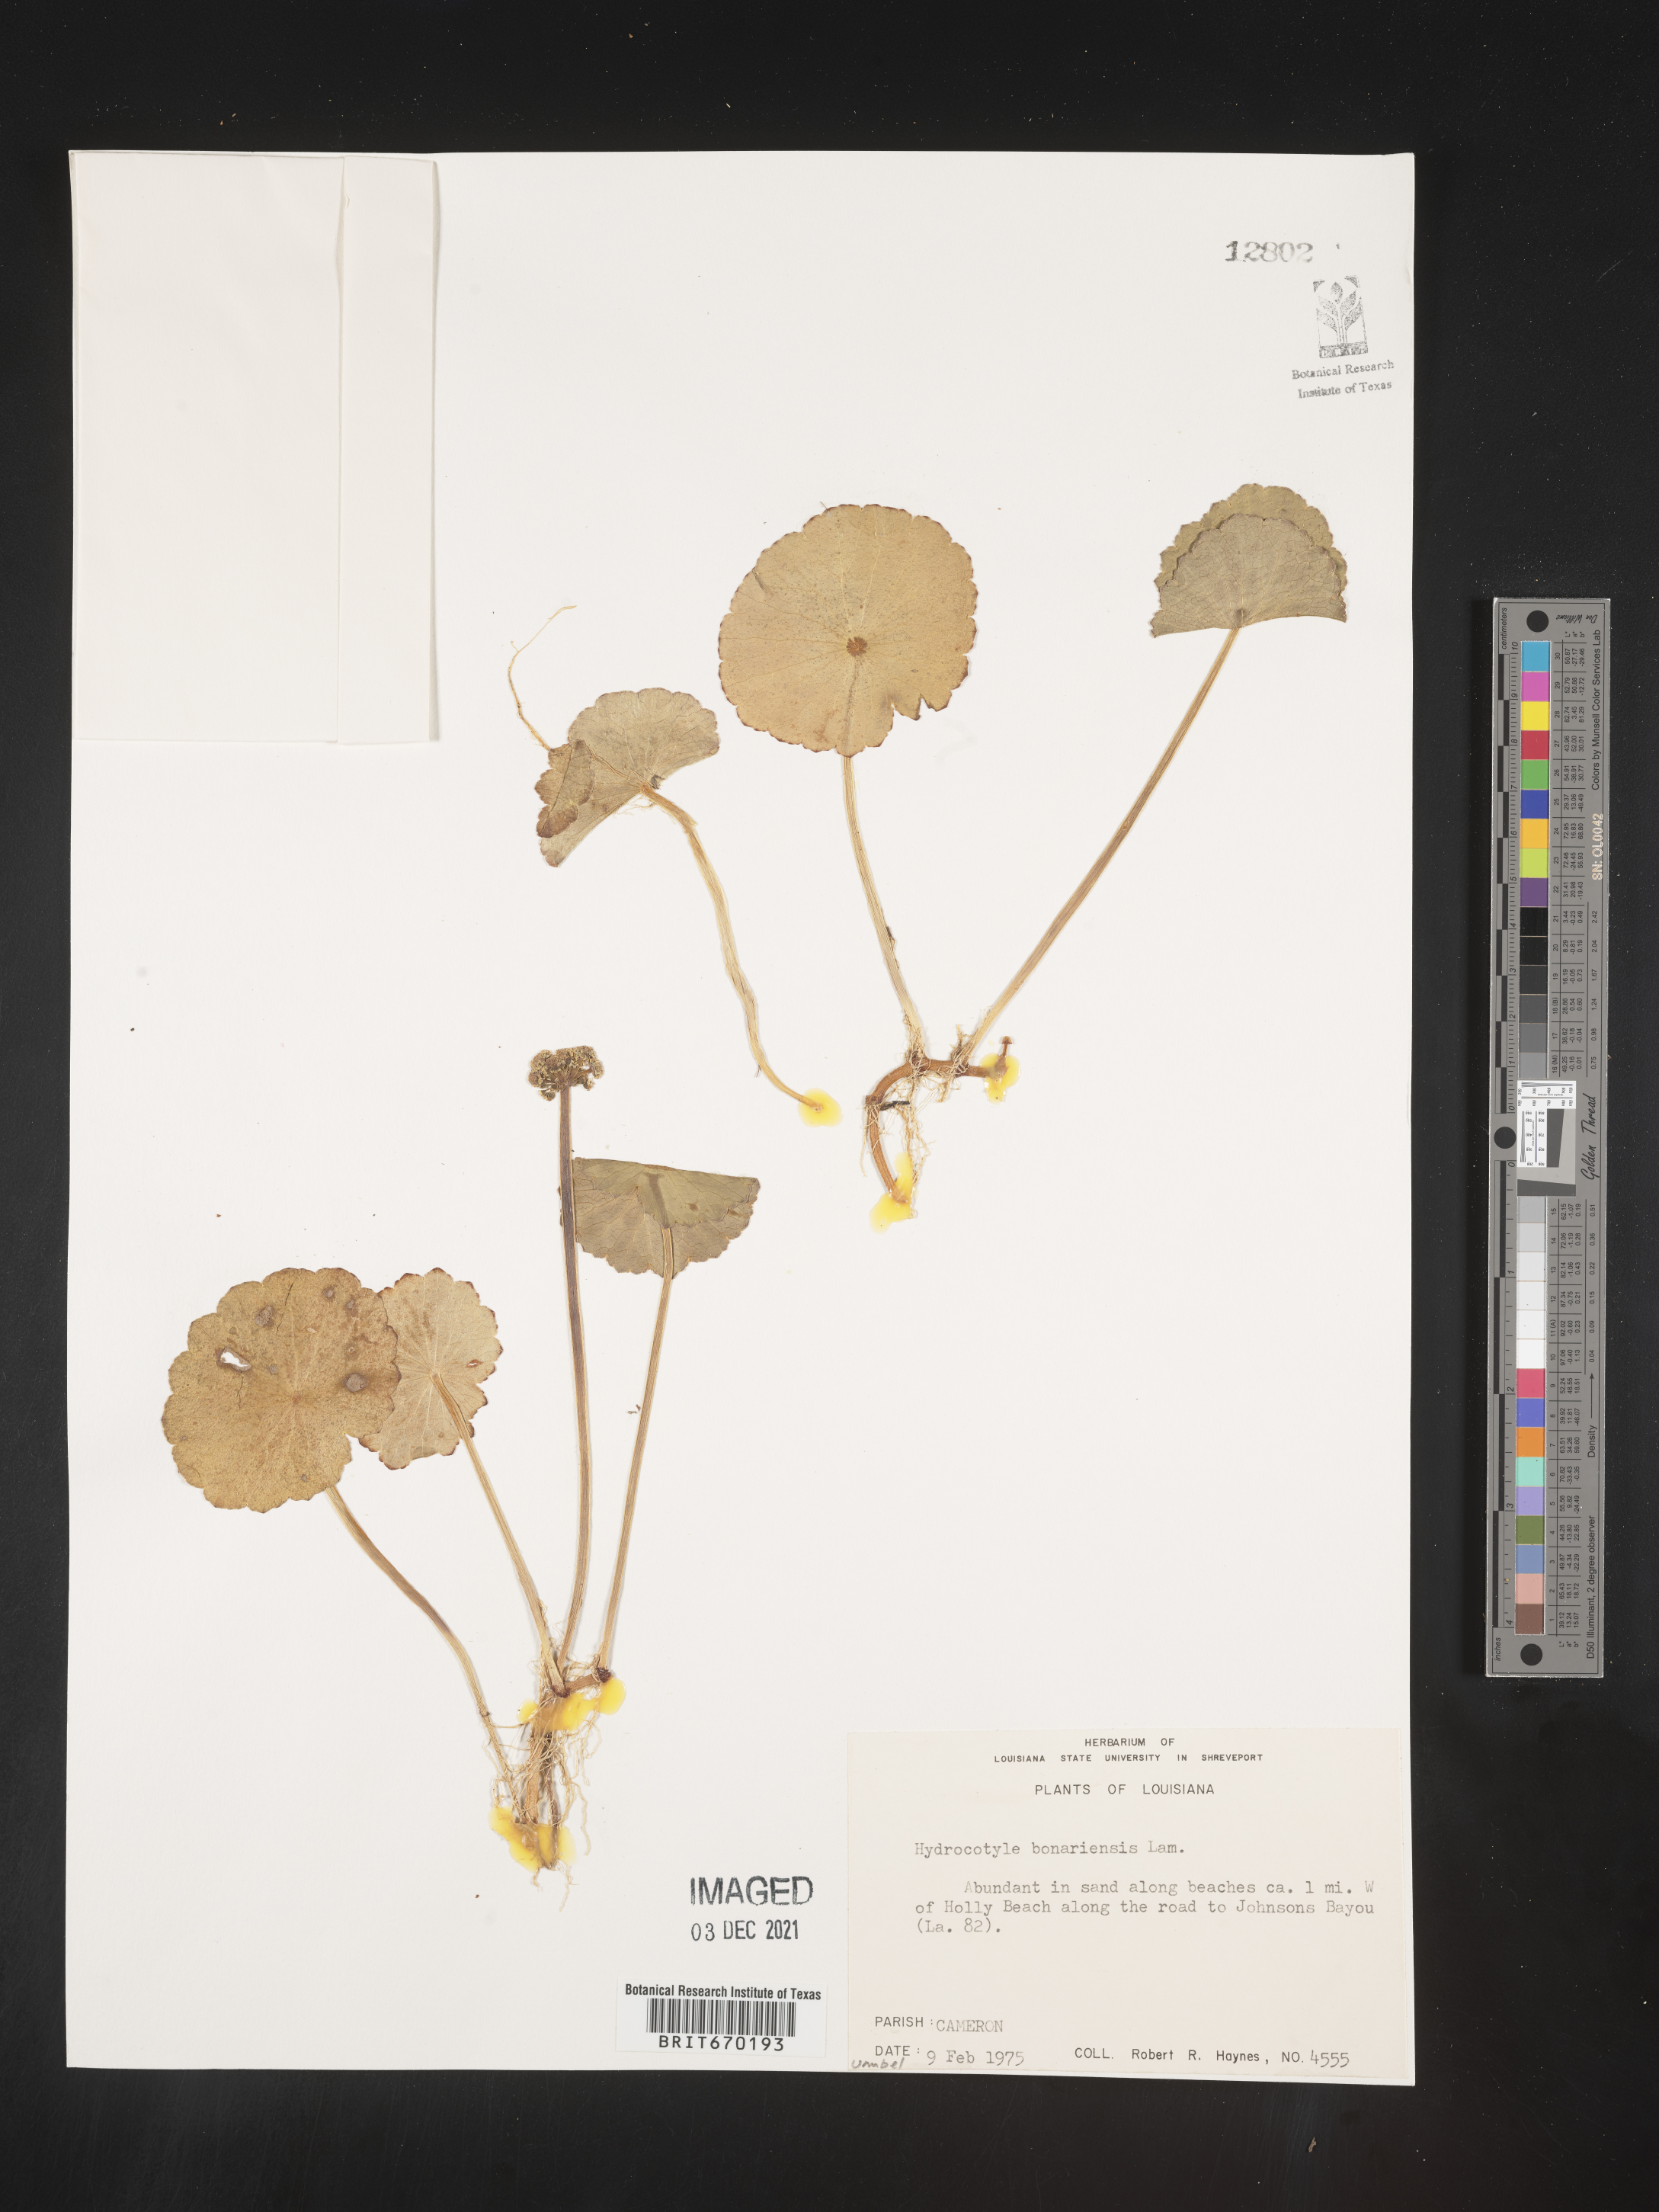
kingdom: Plantae
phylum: Tracheophyta
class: Magnoliopsida
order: Apiales
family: Araliaceae
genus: Hydrocotyle
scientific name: Hydrocotyle bonariensis
